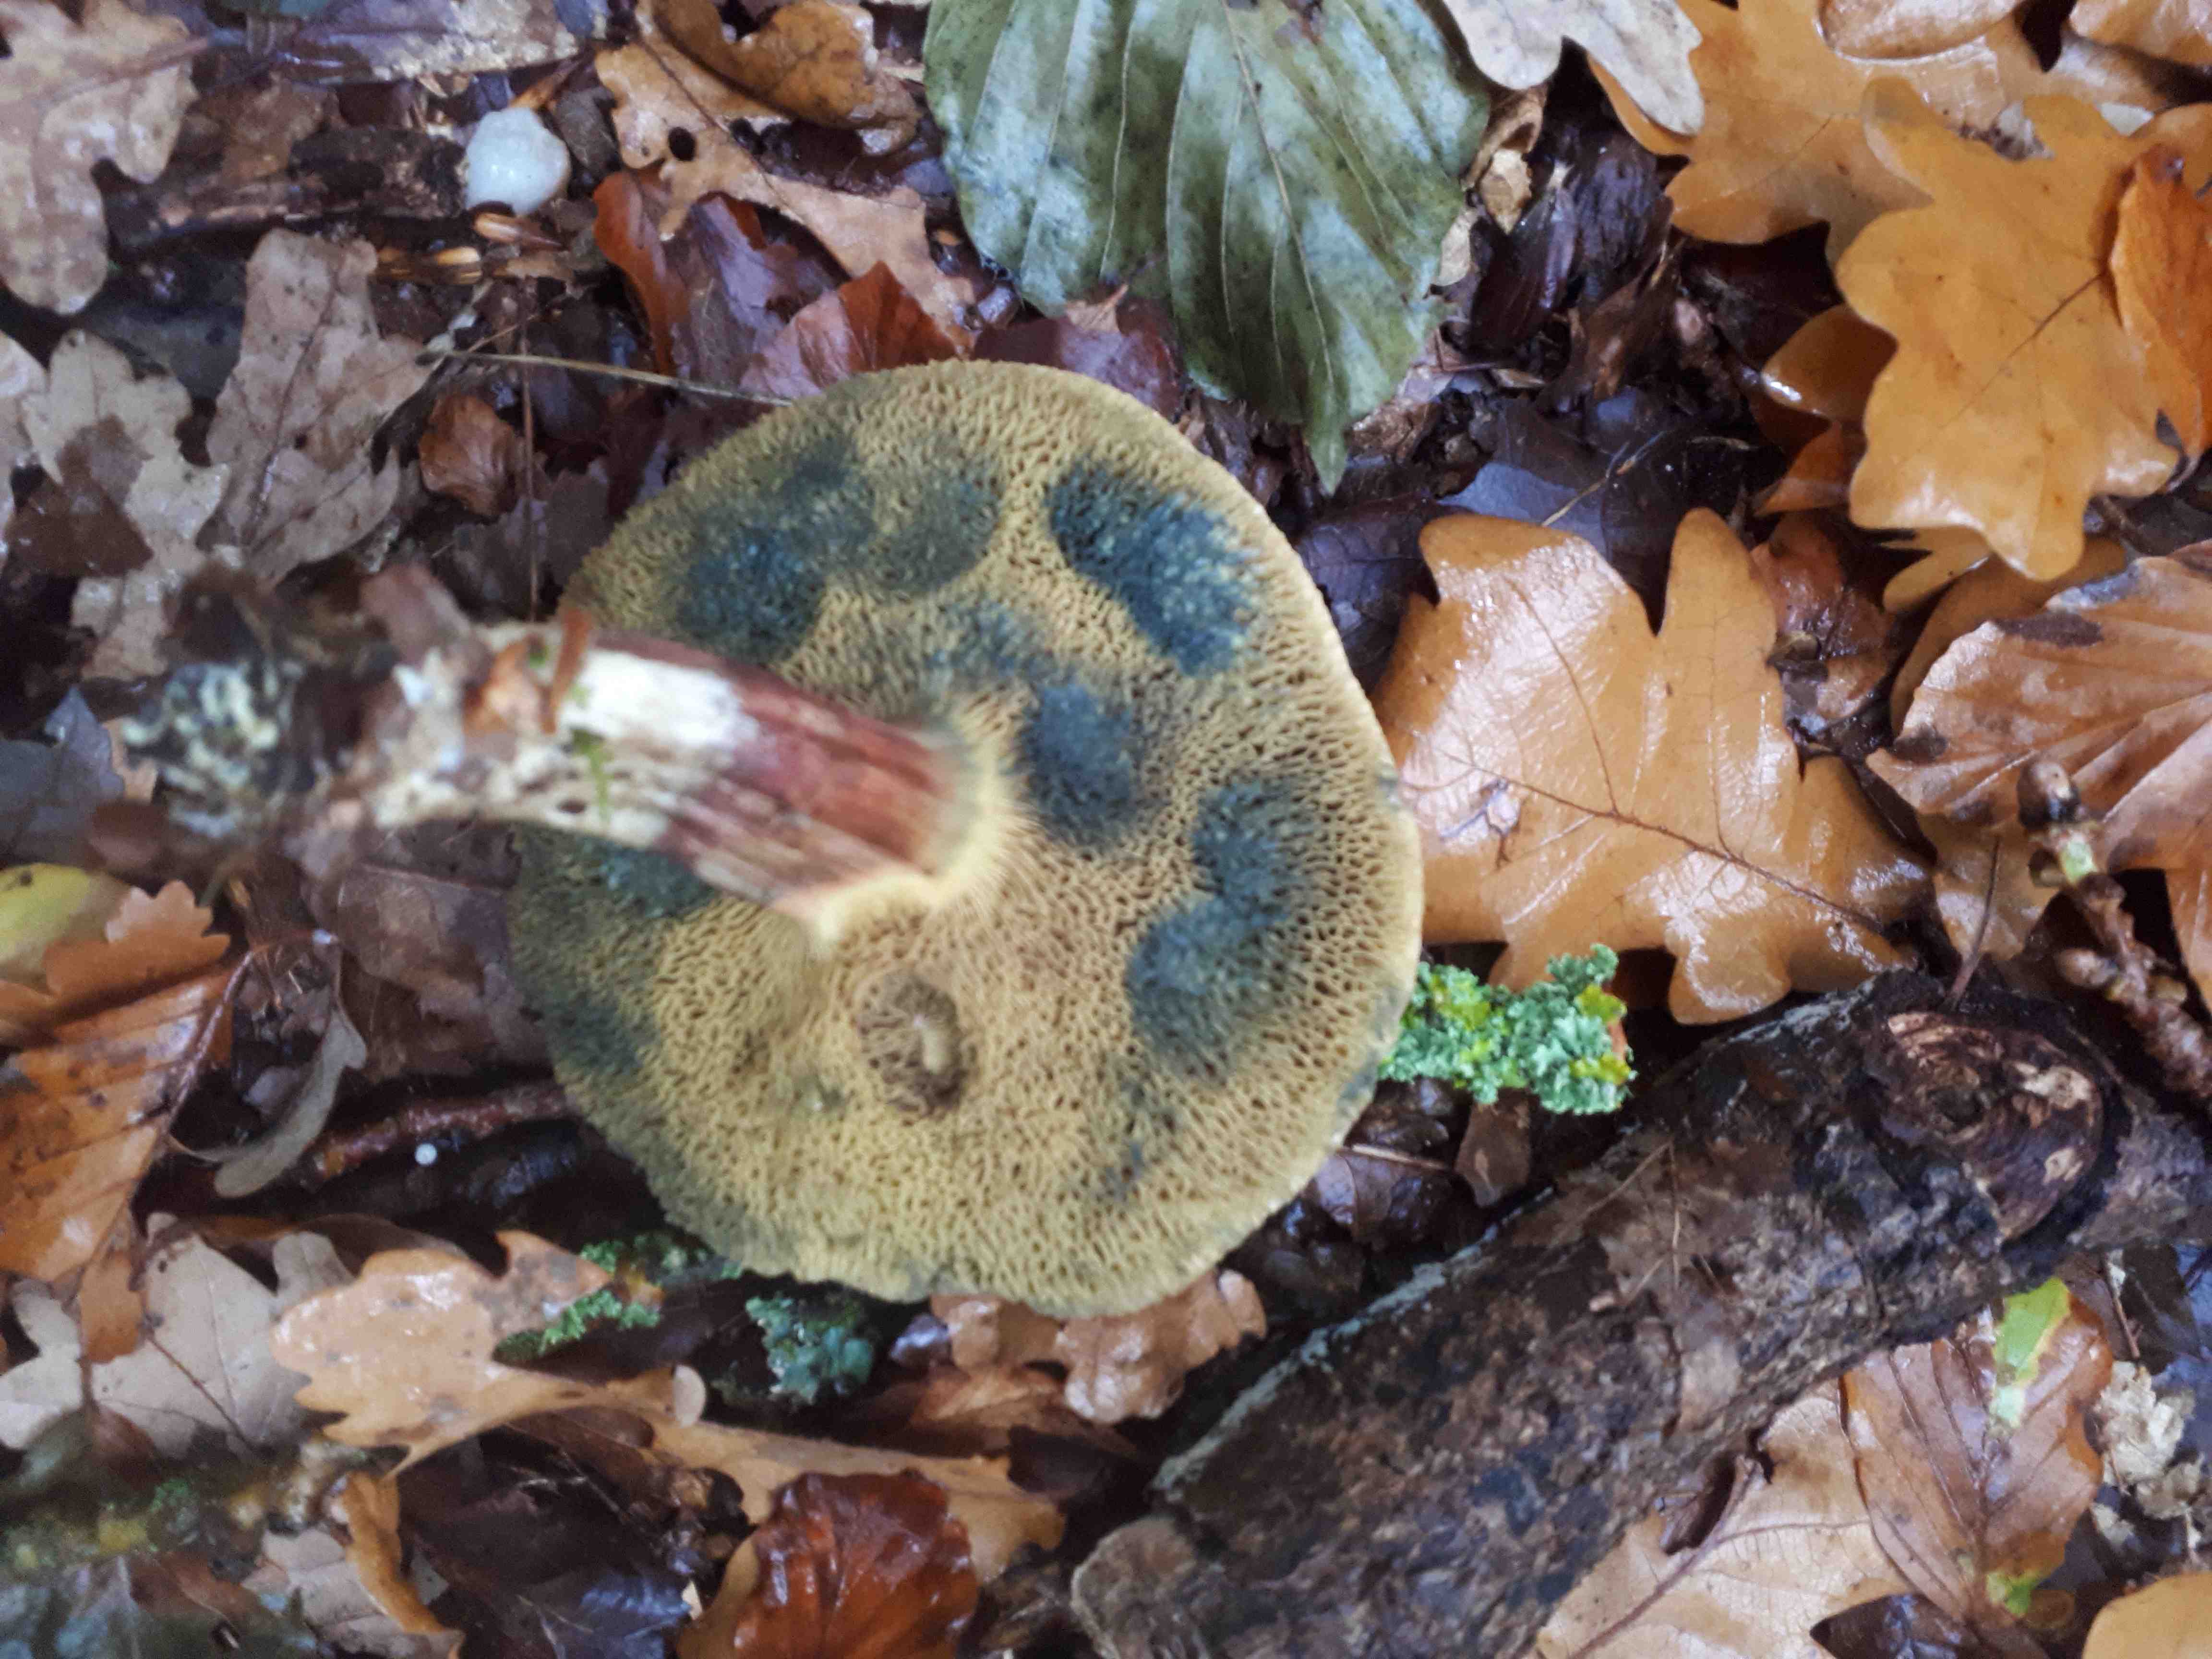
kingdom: Fungi
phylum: Basidiomycota
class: Agaricomycetes
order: Boletales
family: Boletaceae
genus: Xerocomellus
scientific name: Xerocomellus
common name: dværgrørhat
